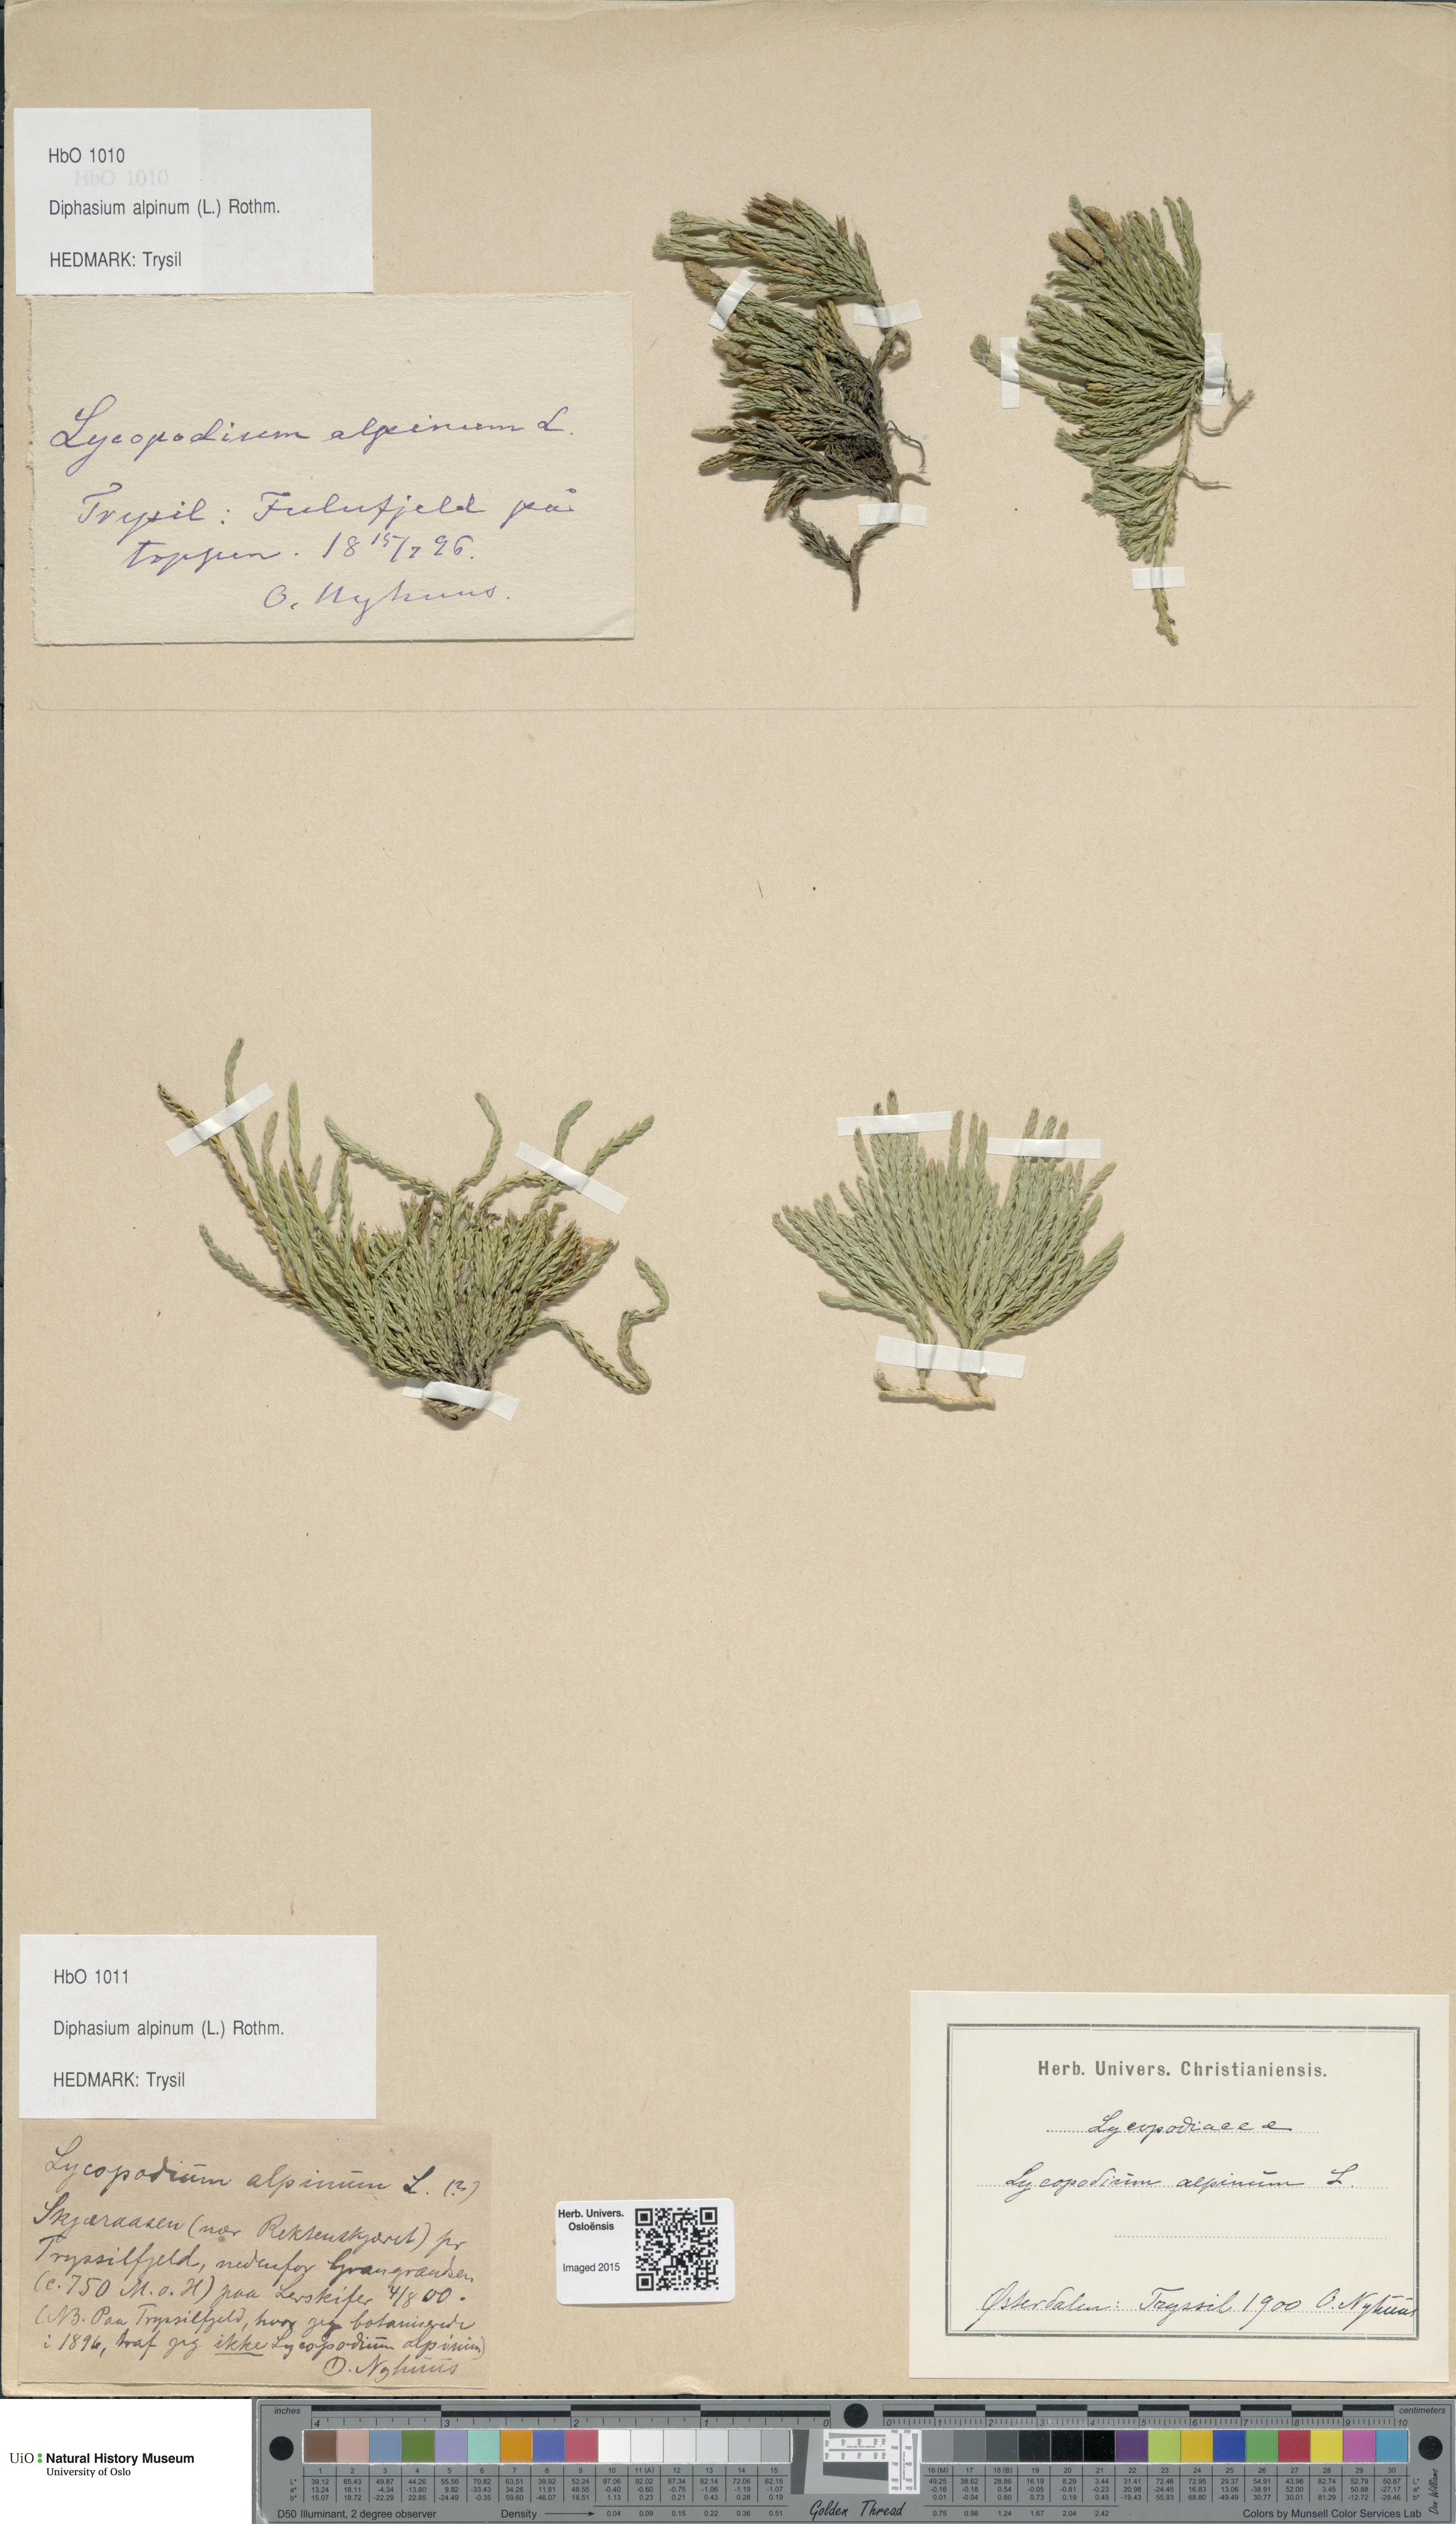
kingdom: Plantae
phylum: Tracheophyta
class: Lycopodiopsida
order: Lycopodiales
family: Lycopodiaceae
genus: Diphasiastrum
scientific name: Diphasiastrum alpinum
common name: Alpine clubmoss
